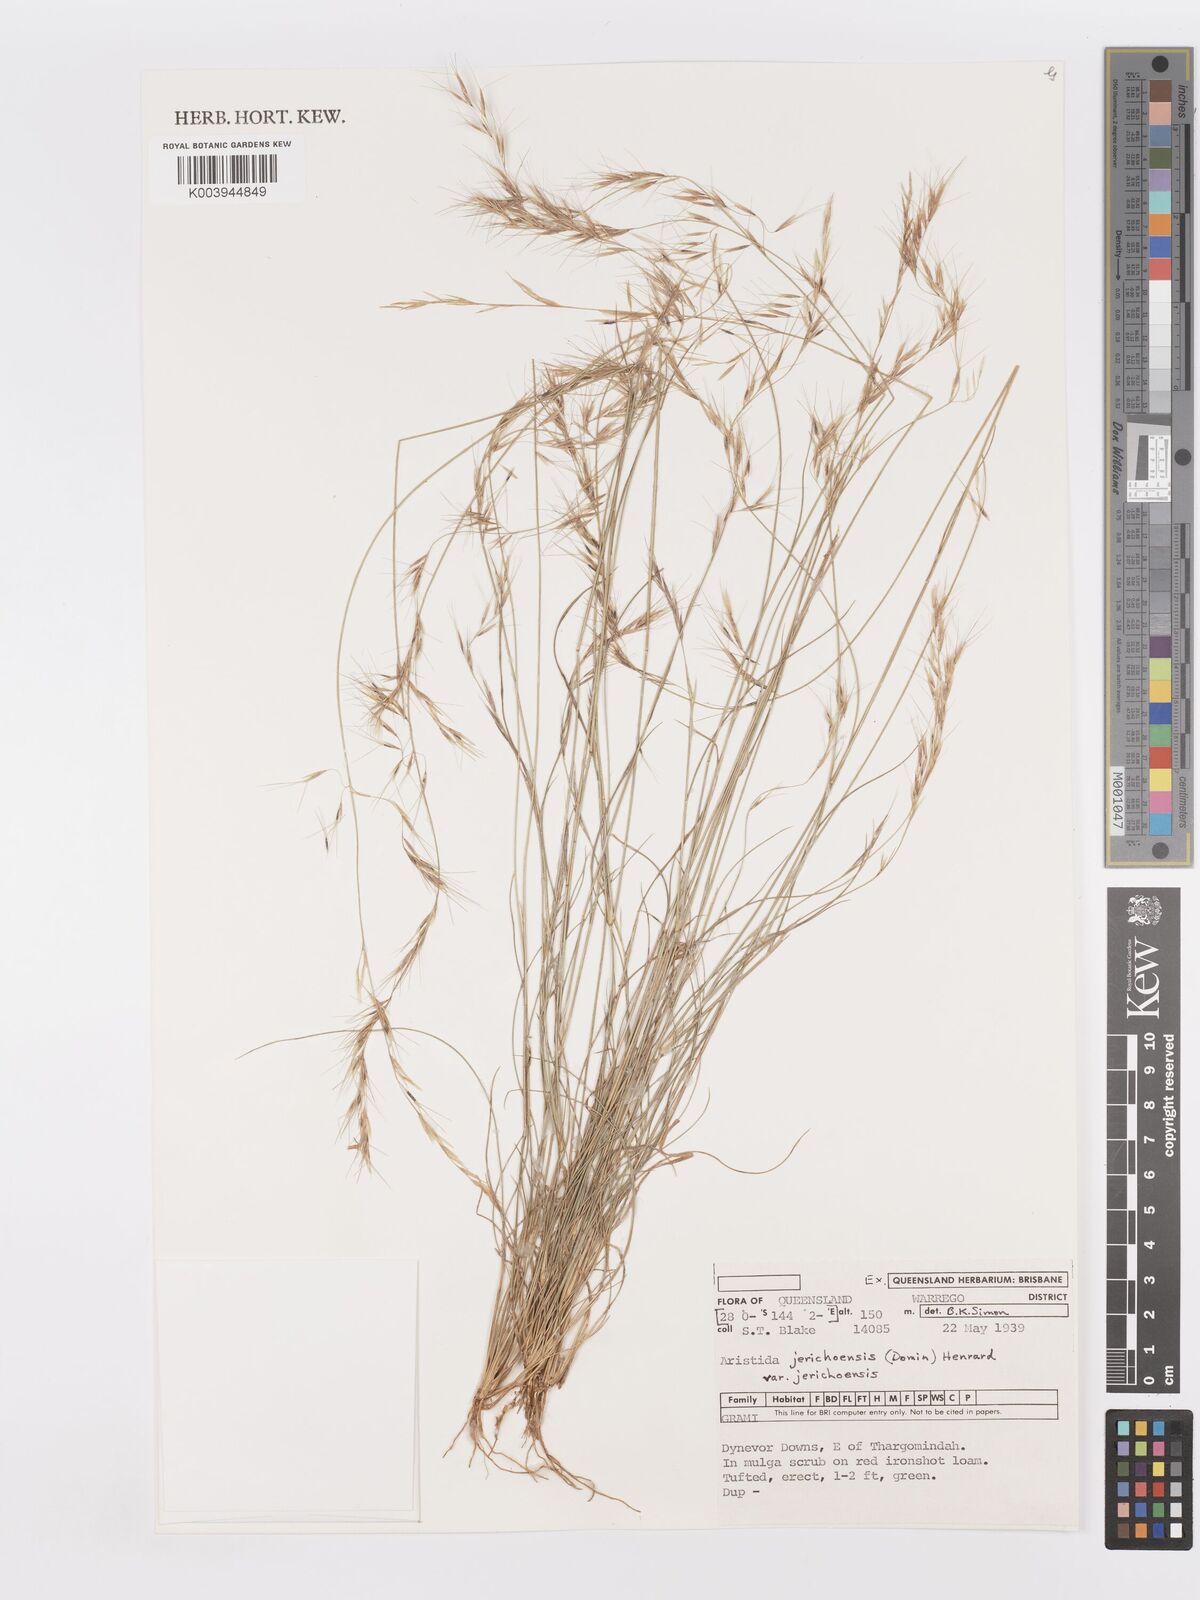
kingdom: Plantae
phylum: Tracheophyta
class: Liliopsida
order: Poales
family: Poaceae
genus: Aristida
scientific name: Aristida jerichoensis
